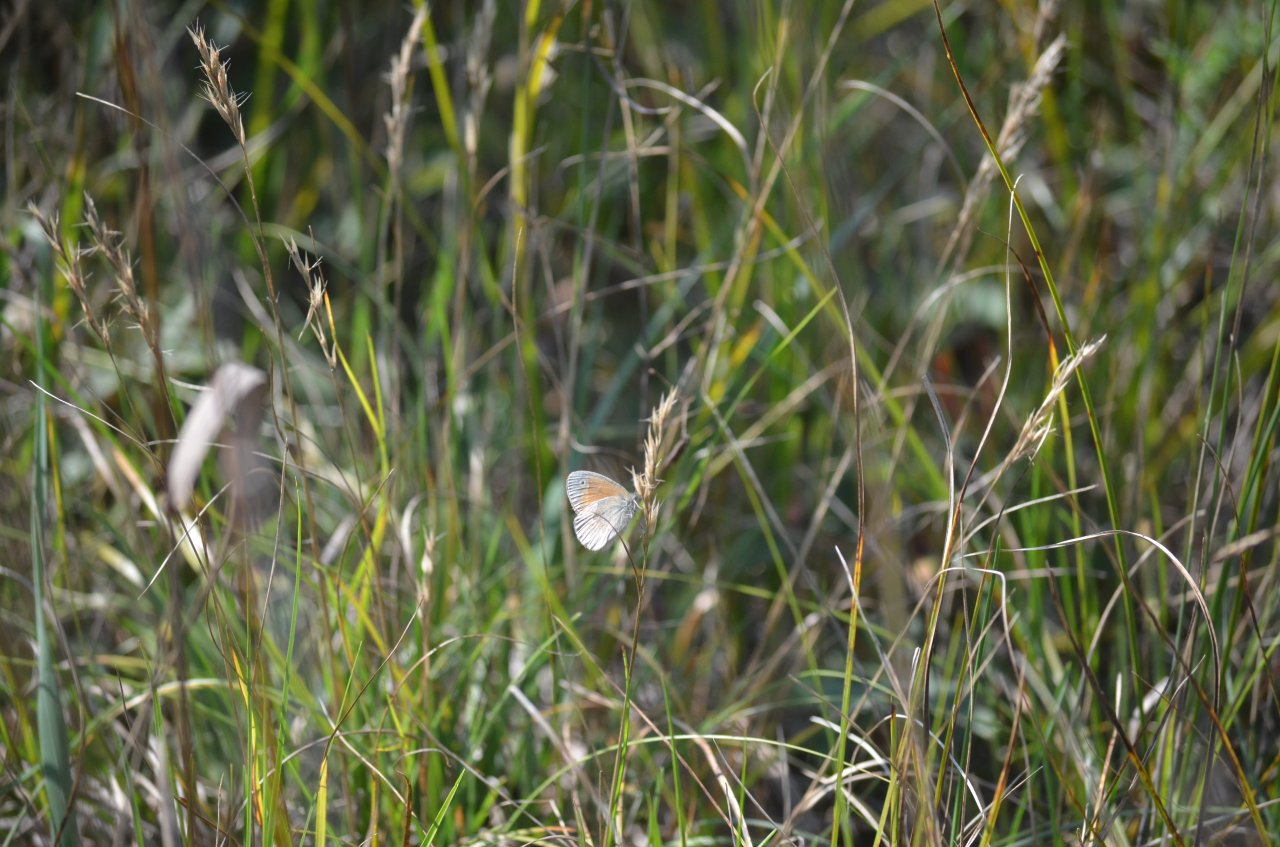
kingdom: Animalia
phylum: Arthropoda
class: Insecta
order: Lepidoptera
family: Nymphalidae
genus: Coenonympha
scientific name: Coenonympha tullia
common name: Large Heath
